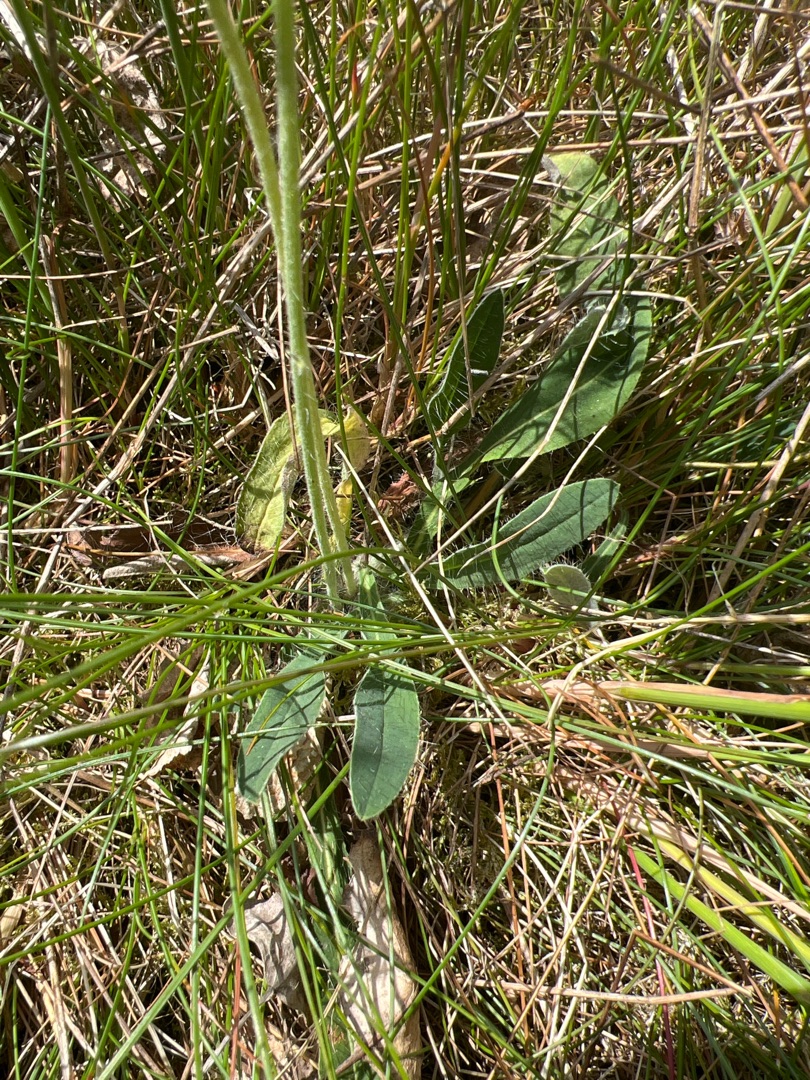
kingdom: Plantae
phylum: Tracheophyta
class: Magnoliopsida
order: Asterales
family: Asteraceae
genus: Pilosella
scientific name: Pilosella officinarum
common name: Håret høgeurt
